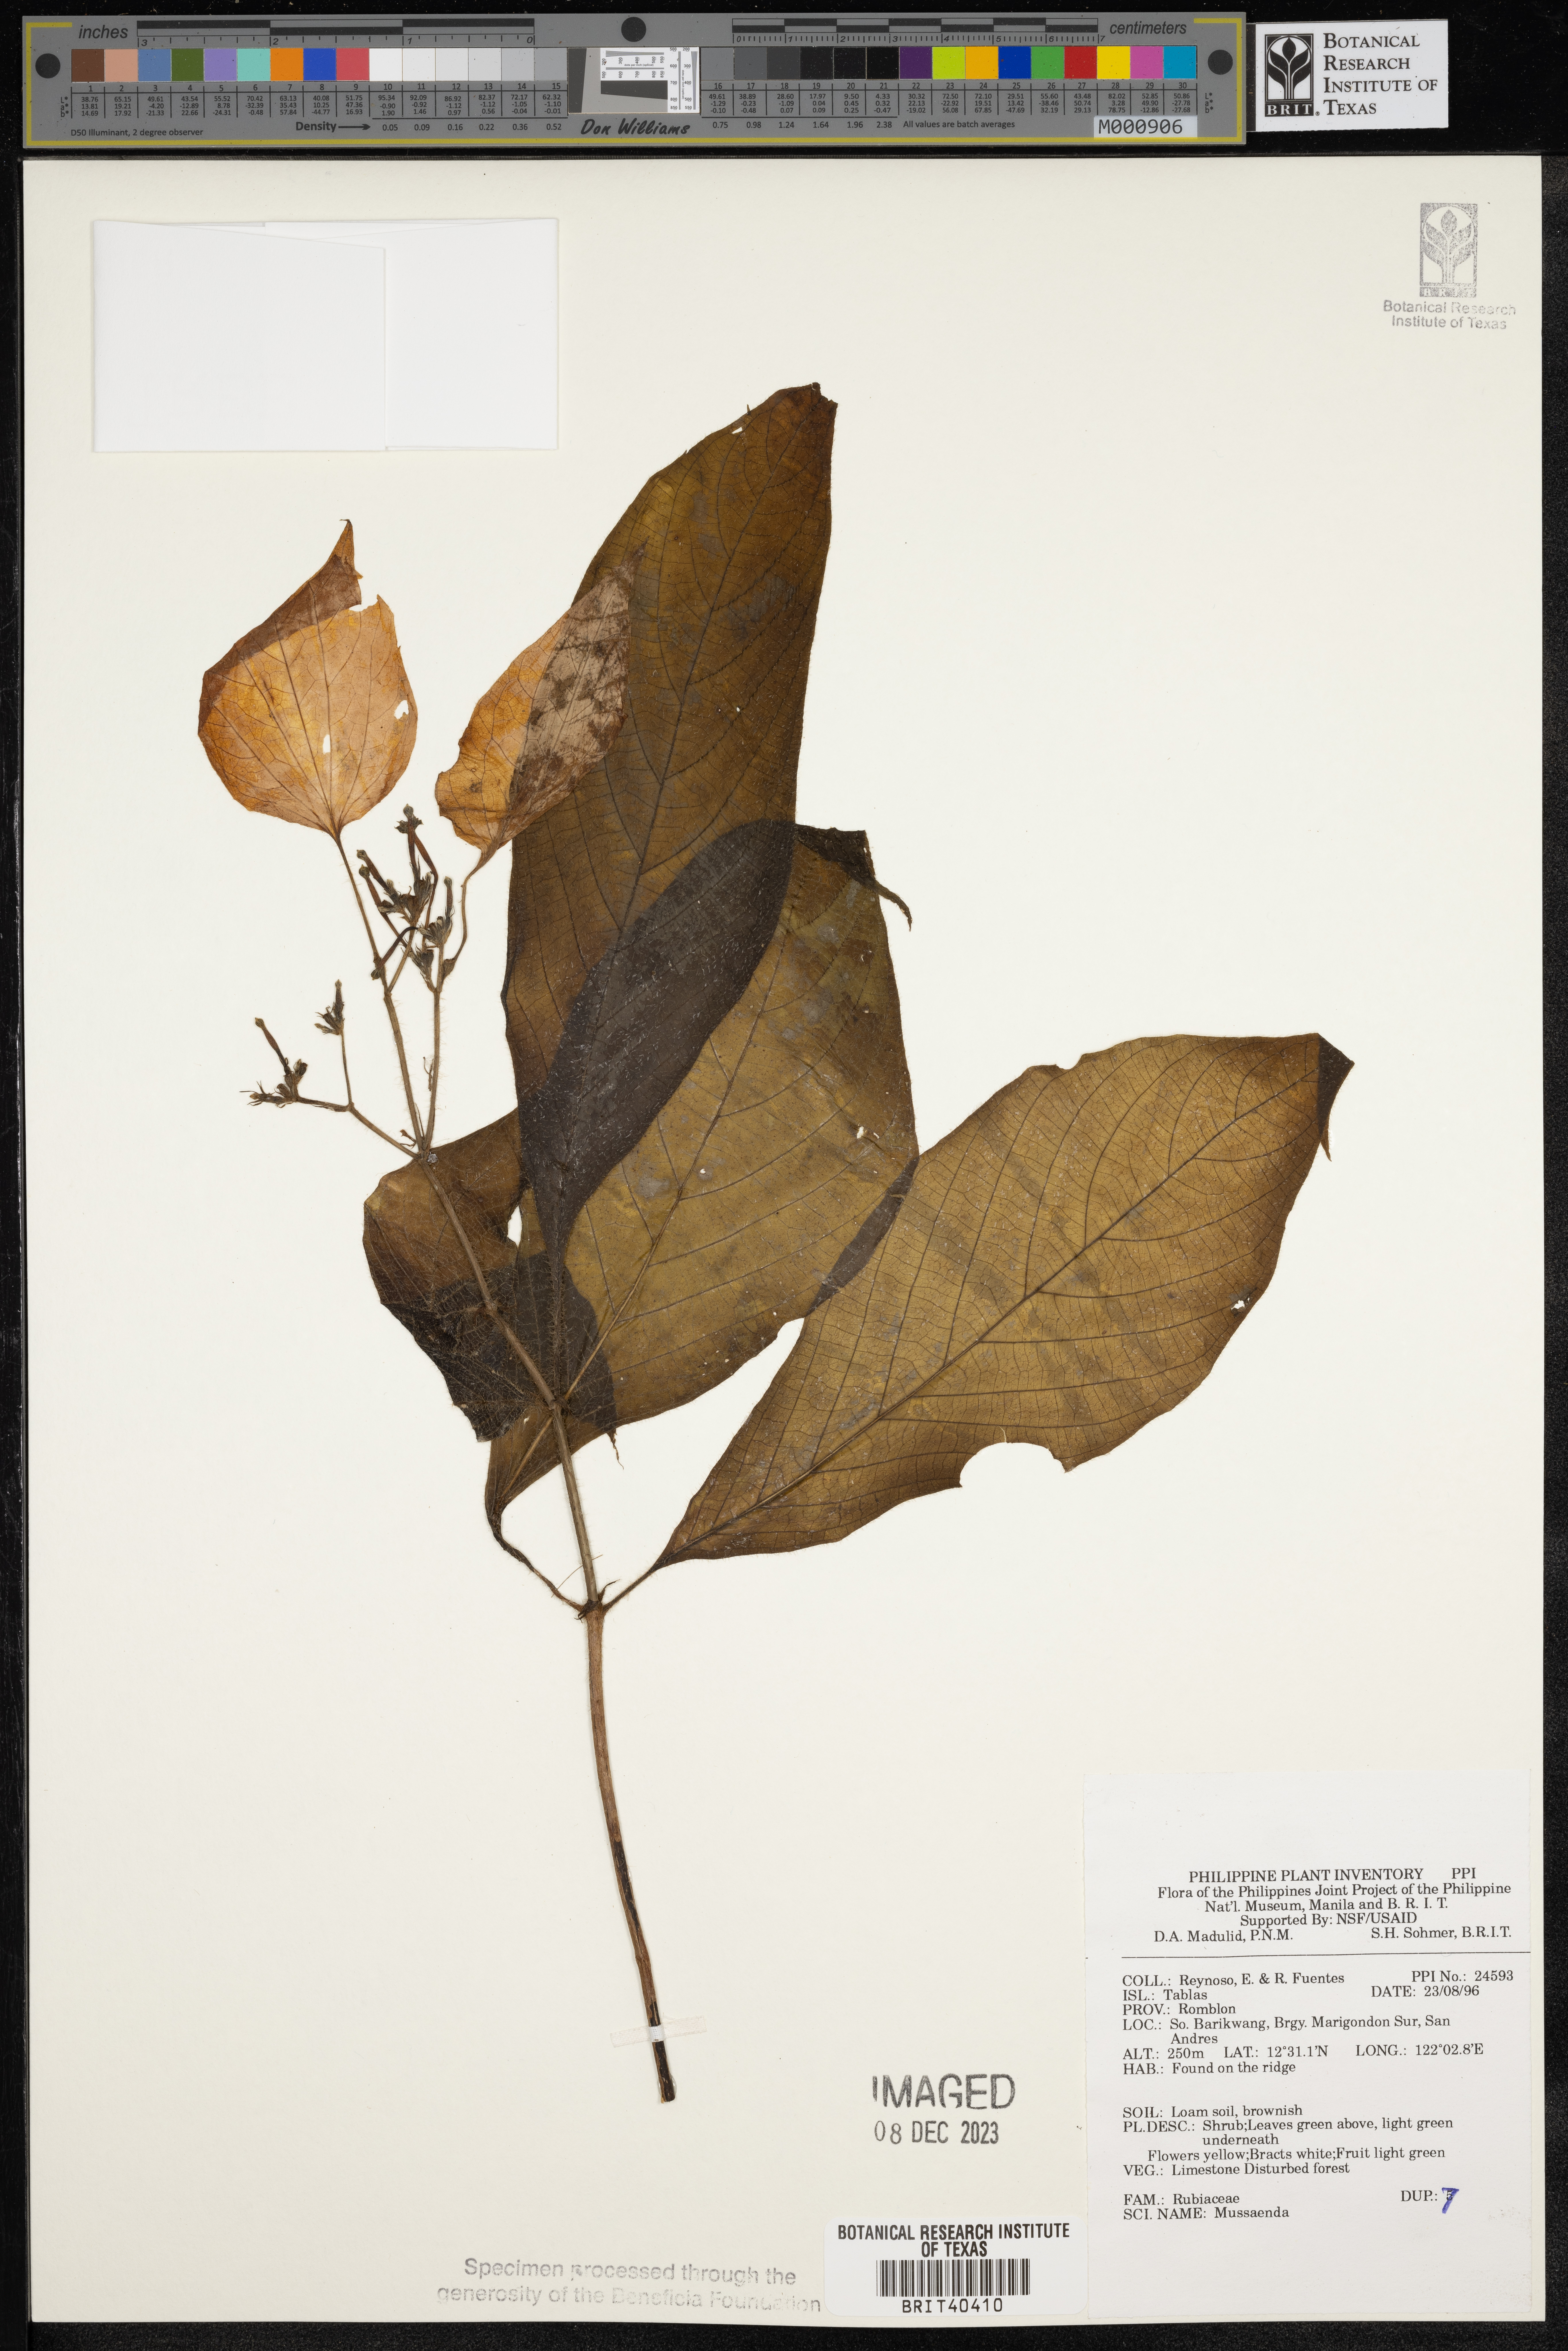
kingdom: Plantae
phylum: Tracheophyta
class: Magnoliopsida
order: Gentianales
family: Rubiaceae
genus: Mussaenda
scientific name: Mussaenda
